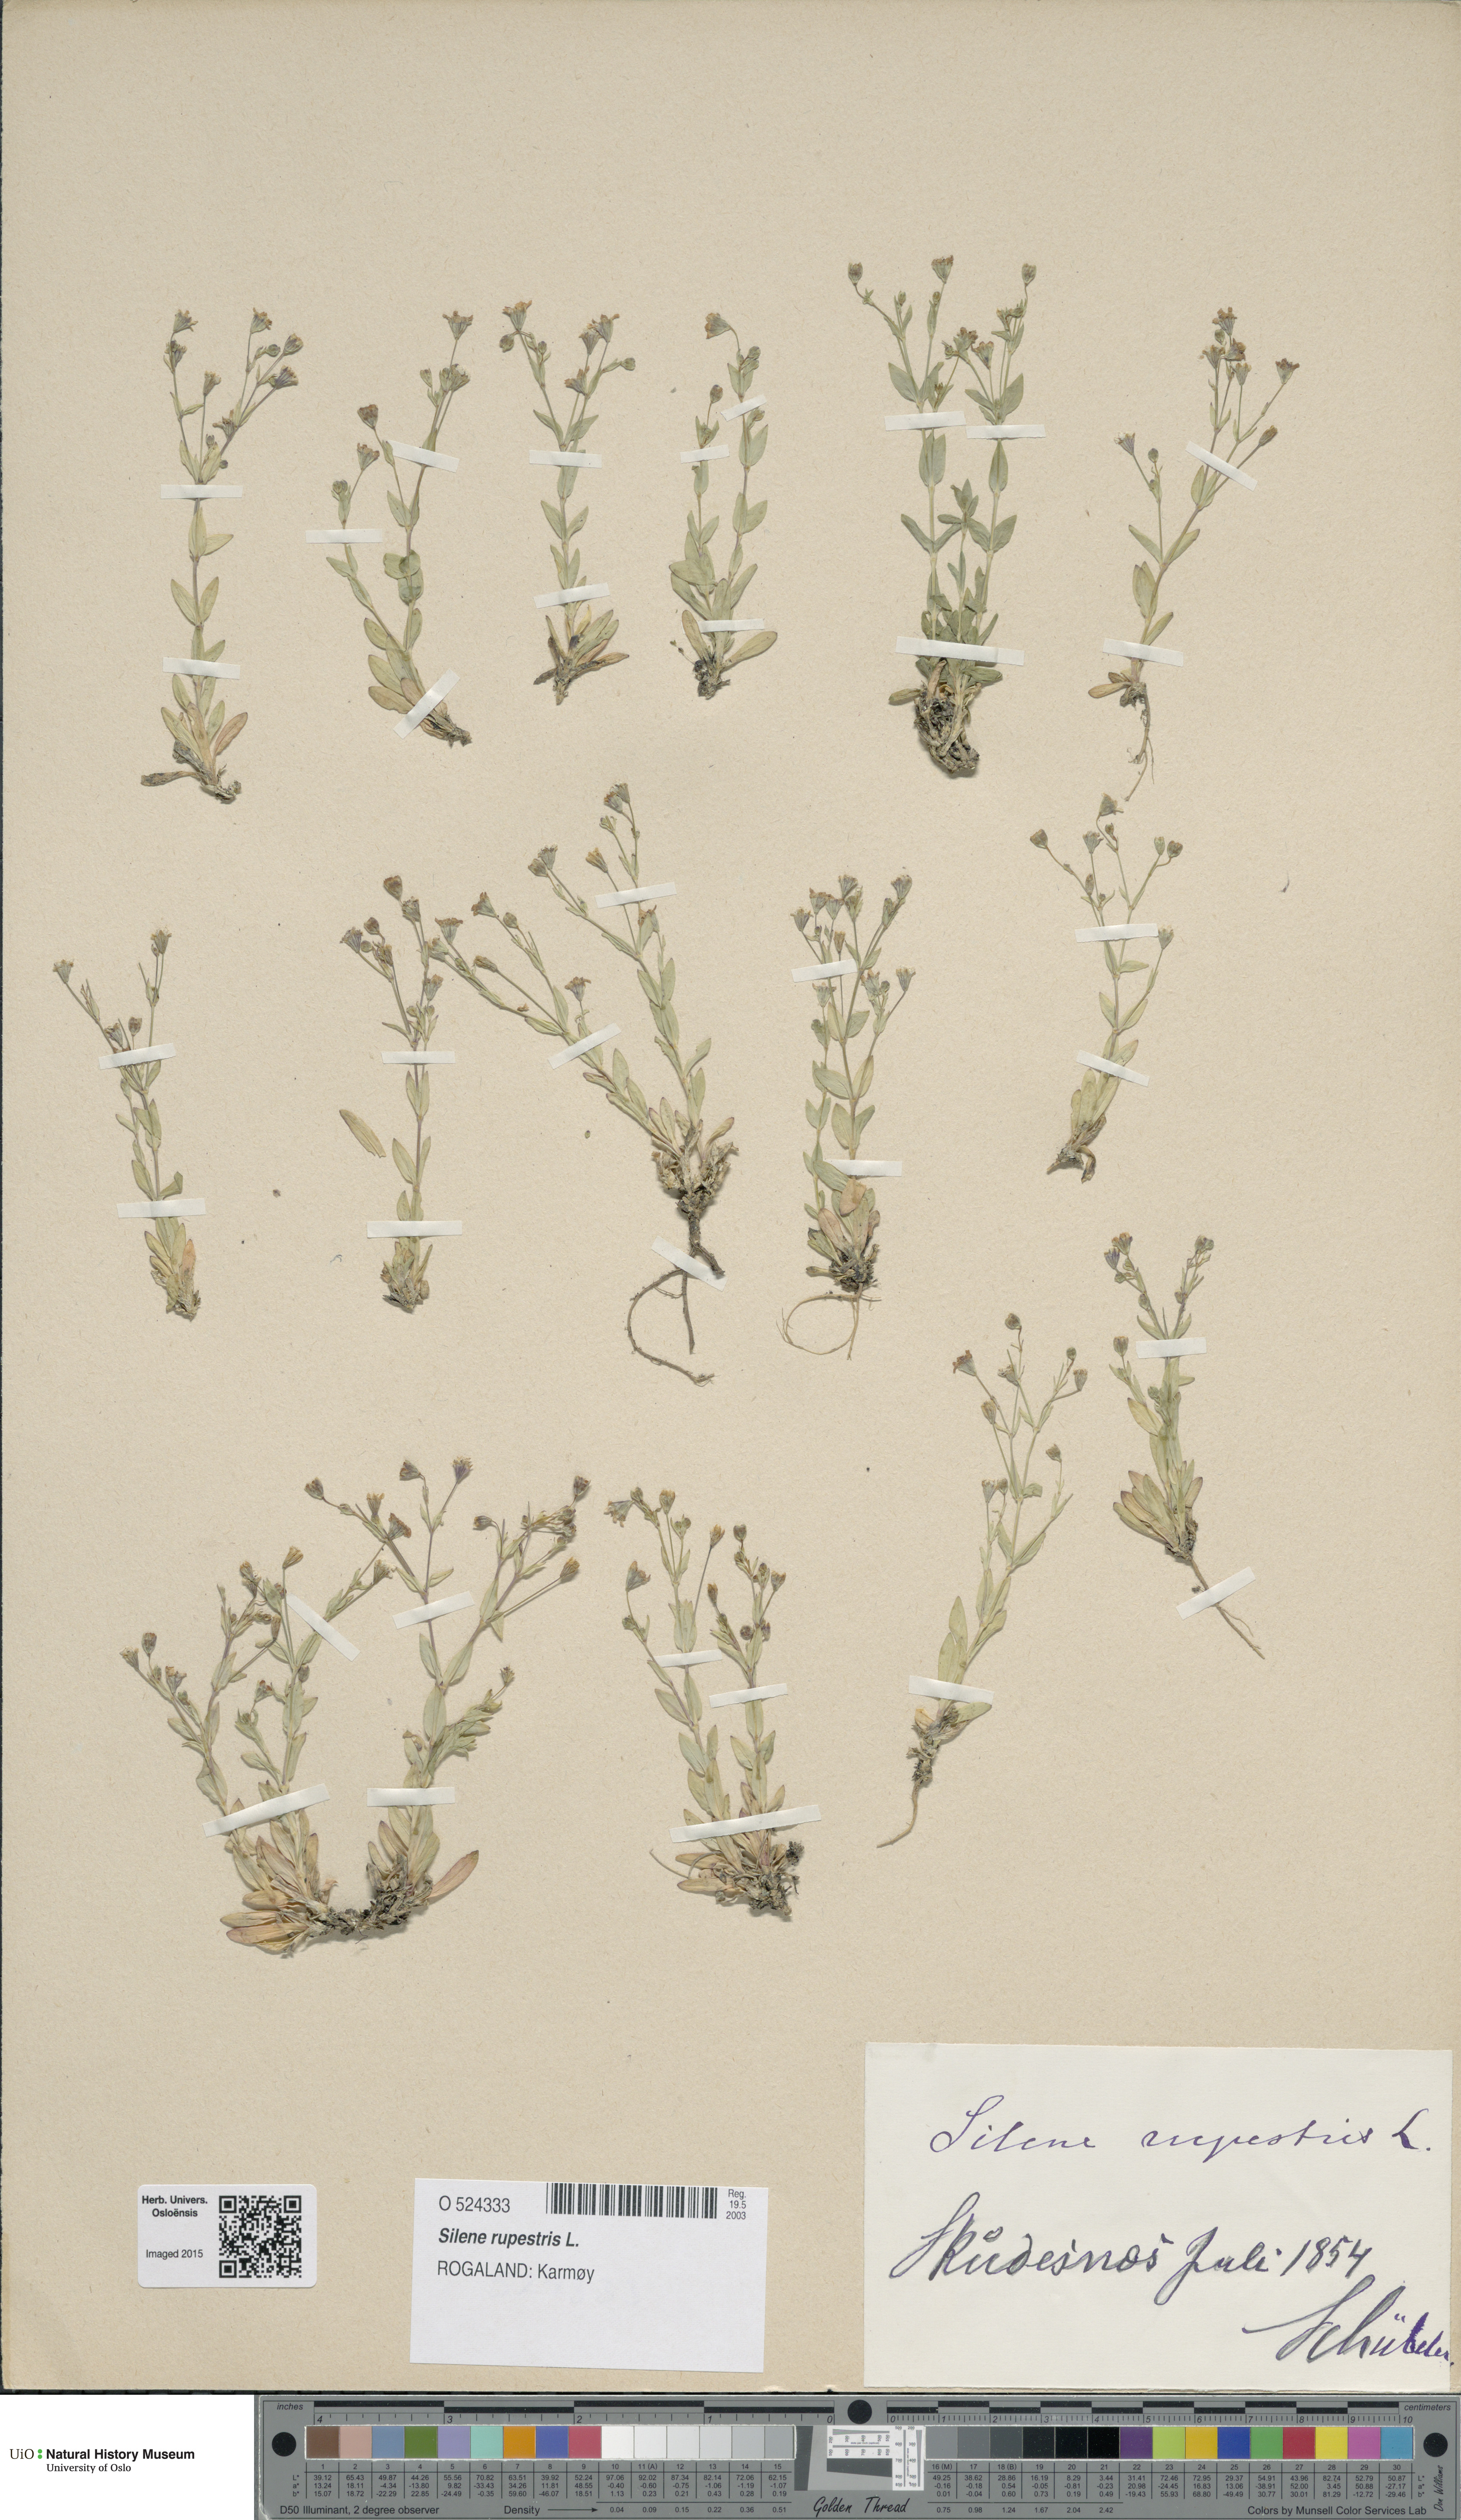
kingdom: Plantae
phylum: Tracheophyta
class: Magnoliopsida
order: Caryophyllales
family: Caryophyllaceae
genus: Atocion
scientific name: Atocion rupestre
